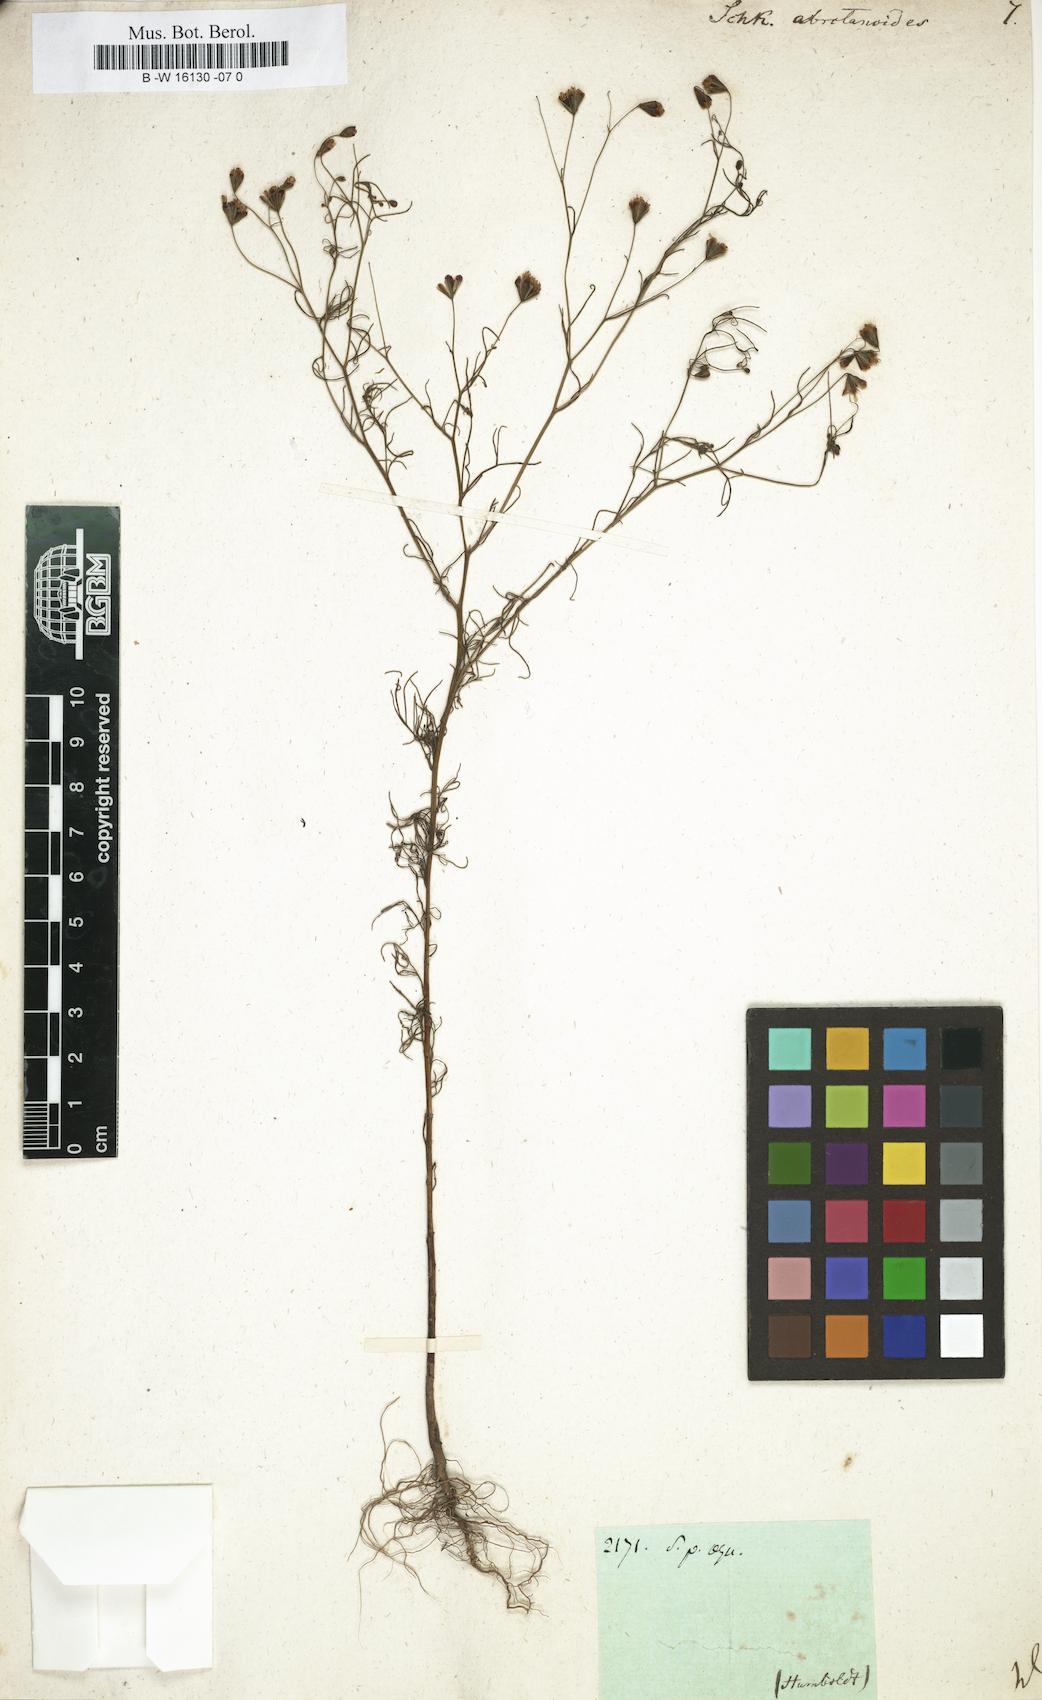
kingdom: Plantae
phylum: Tracheophyta
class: Magnoliopsida
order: Asterales
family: Asteraceae
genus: Schkuhria
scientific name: Schkuhria pinnata
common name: Dwarf marigold
